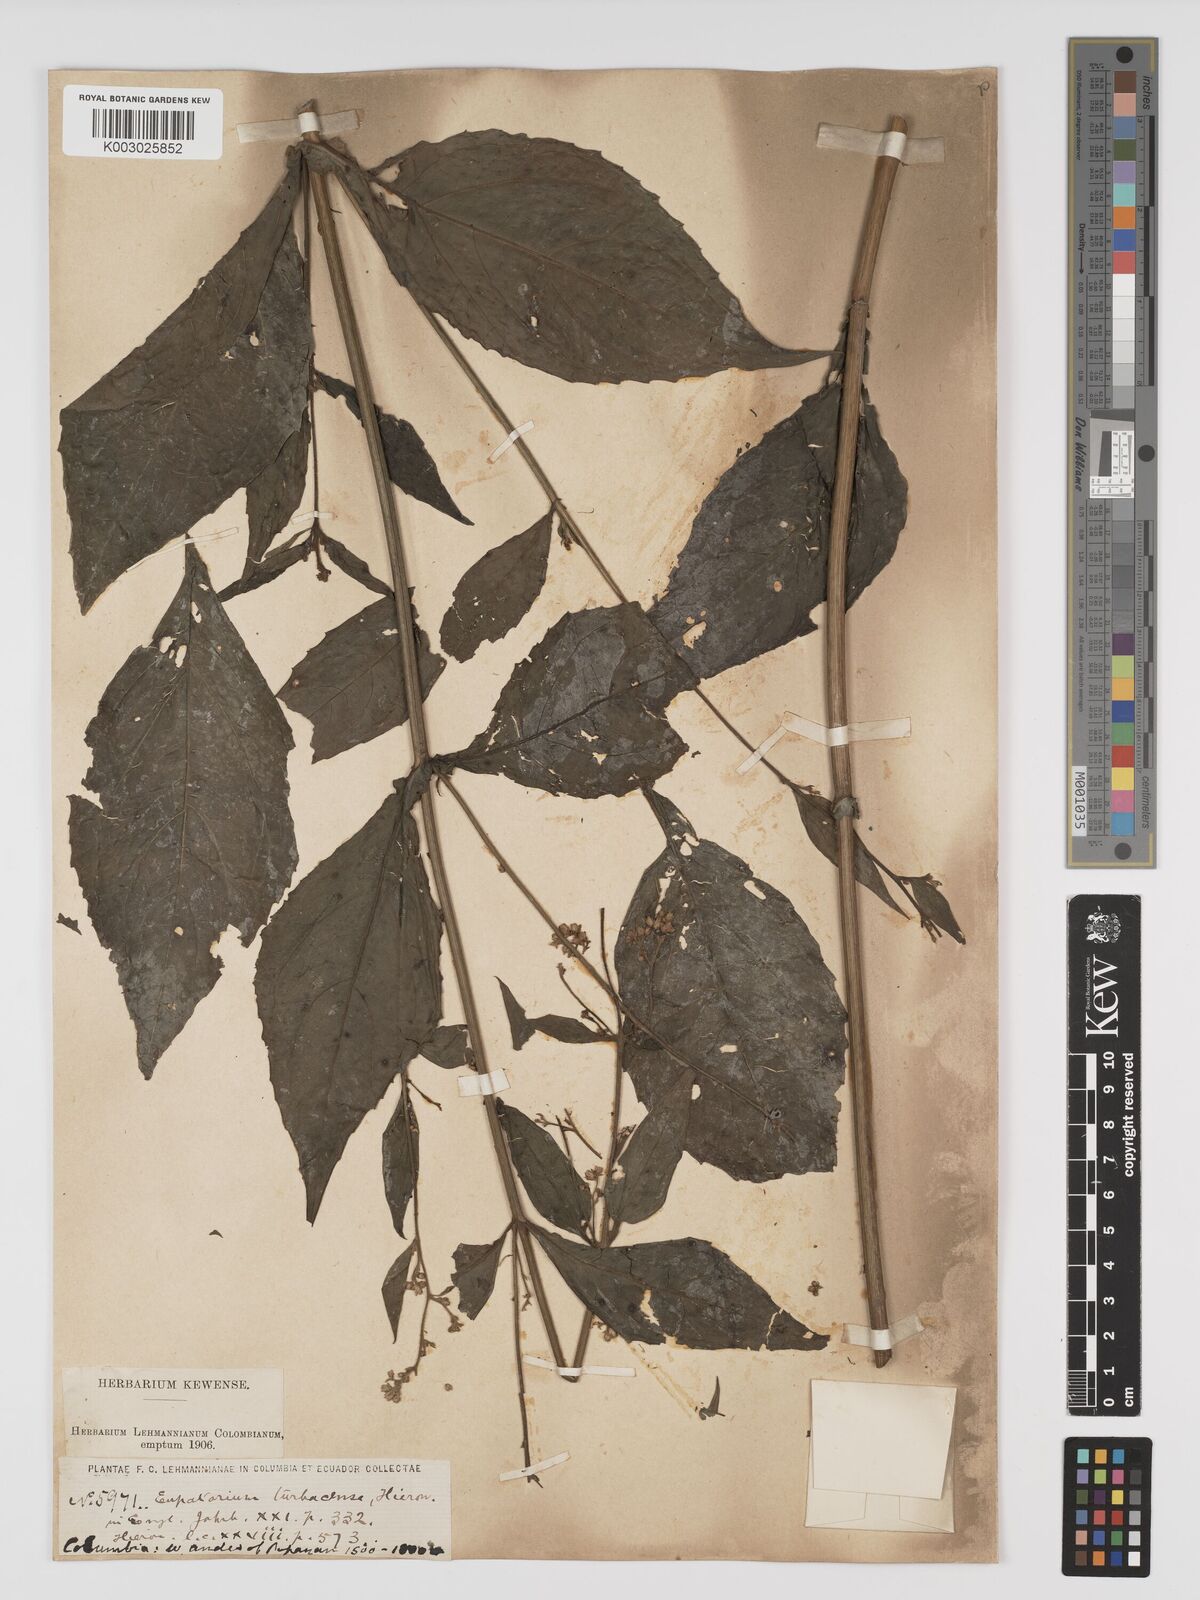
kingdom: Plantae
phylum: Tracheophyta
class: Magnoliopsida
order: Asterales
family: Asteraceae
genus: Ayapana
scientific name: Ayapana turbacensis
